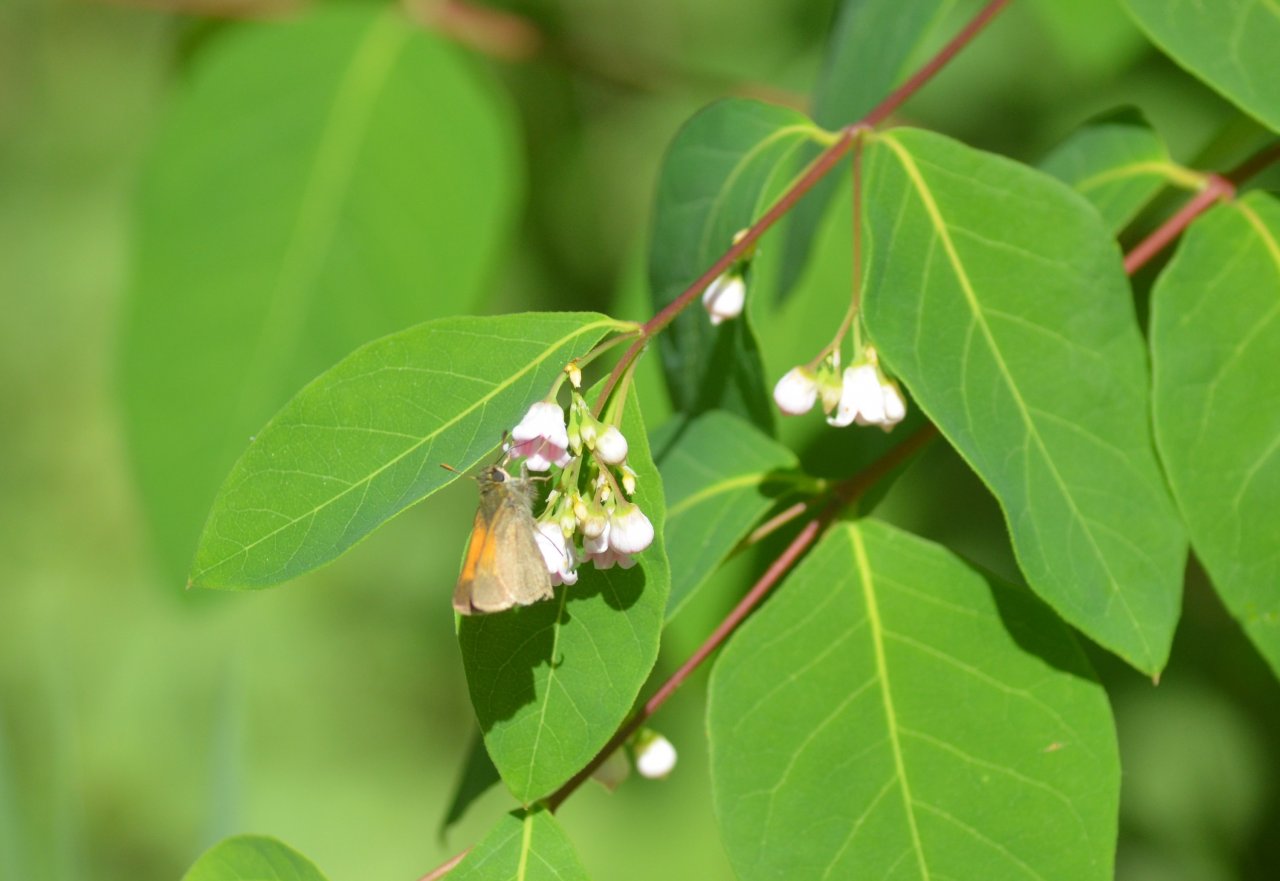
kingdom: Animalia
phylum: Arthropoda
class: Insecta
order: Lepidoptera
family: Hesperiidae
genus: Polites
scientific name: Polites themistocles
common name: Tawny-edged Skipper
